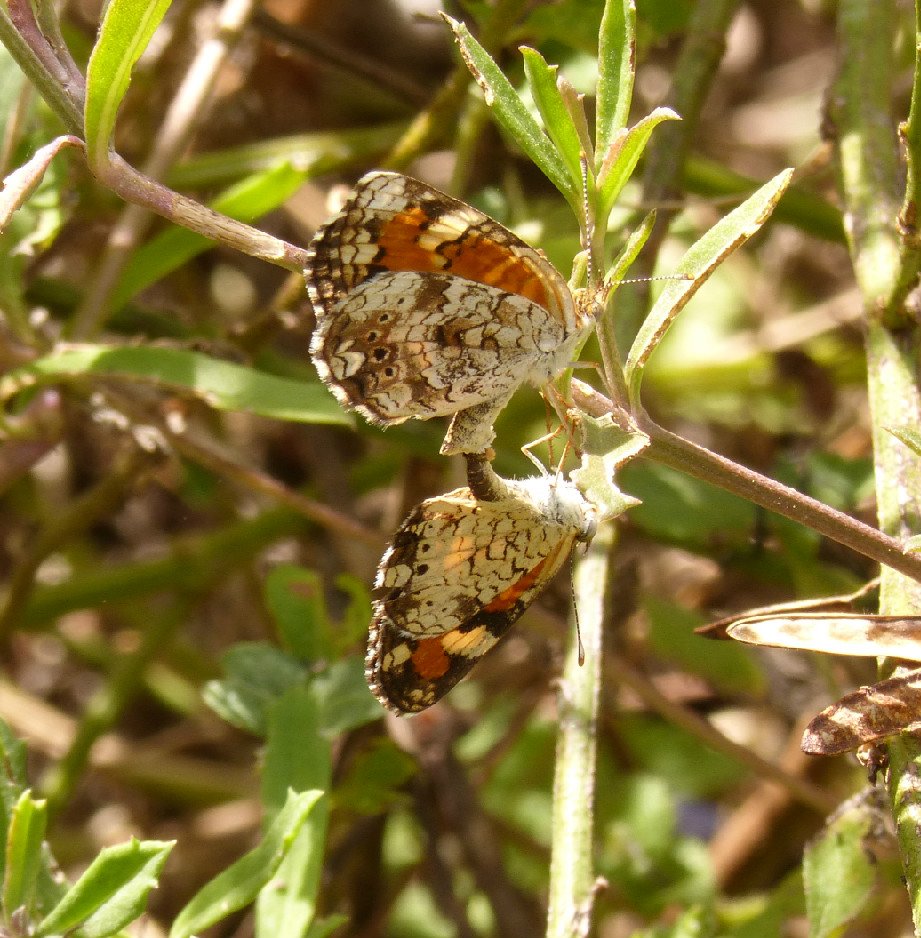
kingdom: Animalia
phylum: Arthropoda
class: Insecta
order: Lepidoptera
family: Nymphalidae
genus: Phyciodes
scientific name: Phyciodes phaon
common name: Phaon Crescent
